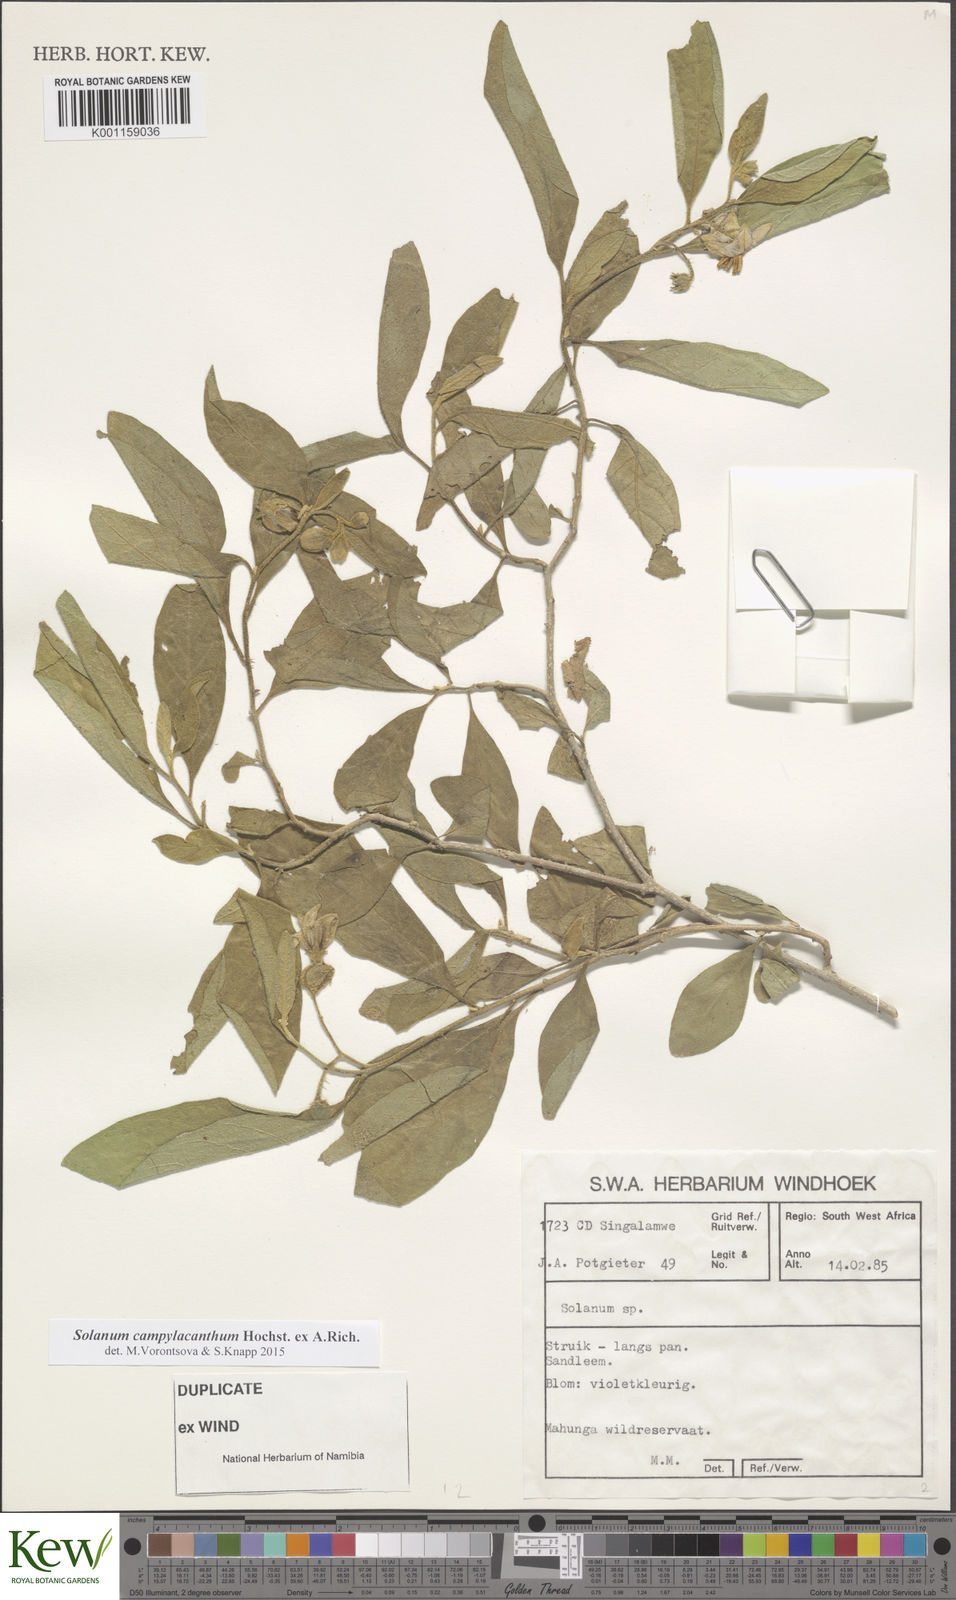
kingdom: Plantae
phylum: Tracheophyta
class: Magnoliopsida
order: Solanales
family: Solanaceae
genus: Solanum
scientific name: Solanum campylacanthum
